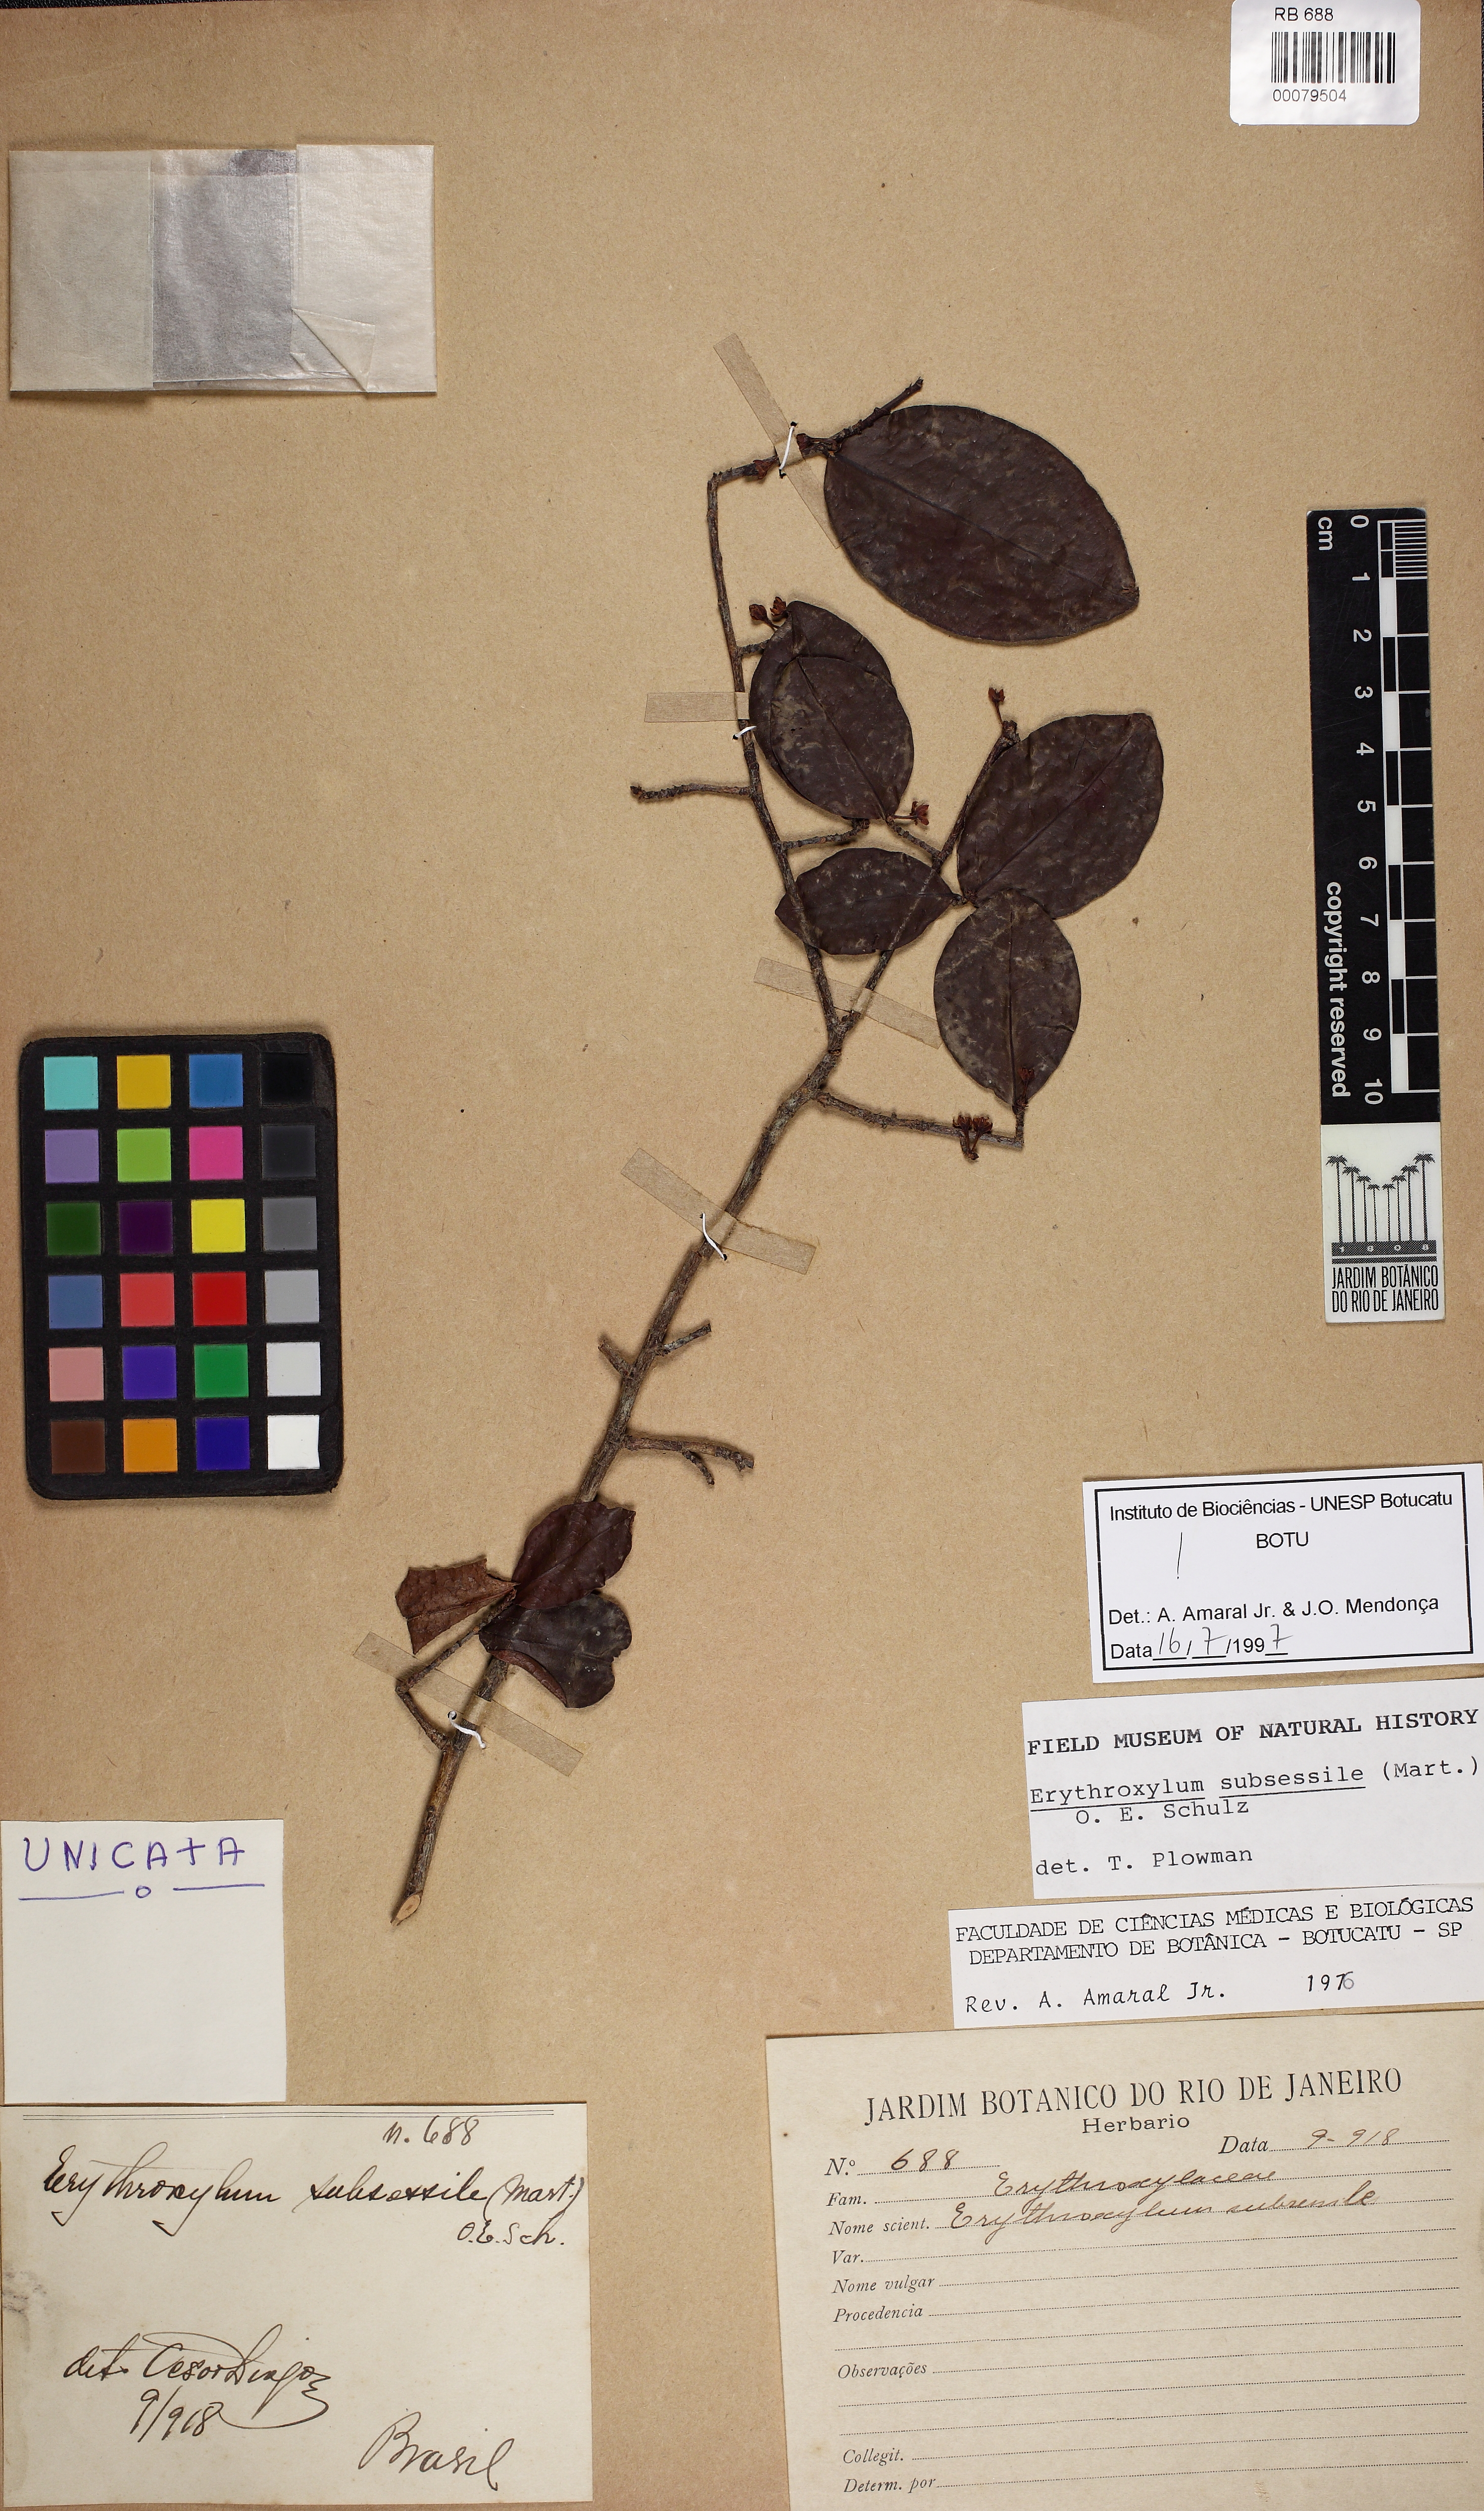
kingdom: Plantae
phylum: Tracheophyta
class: Magnoliopsida
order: Malpighiales
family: Erythroxylaceae
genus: Erythroxylum
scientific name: Erythroxylum macrocalyx
